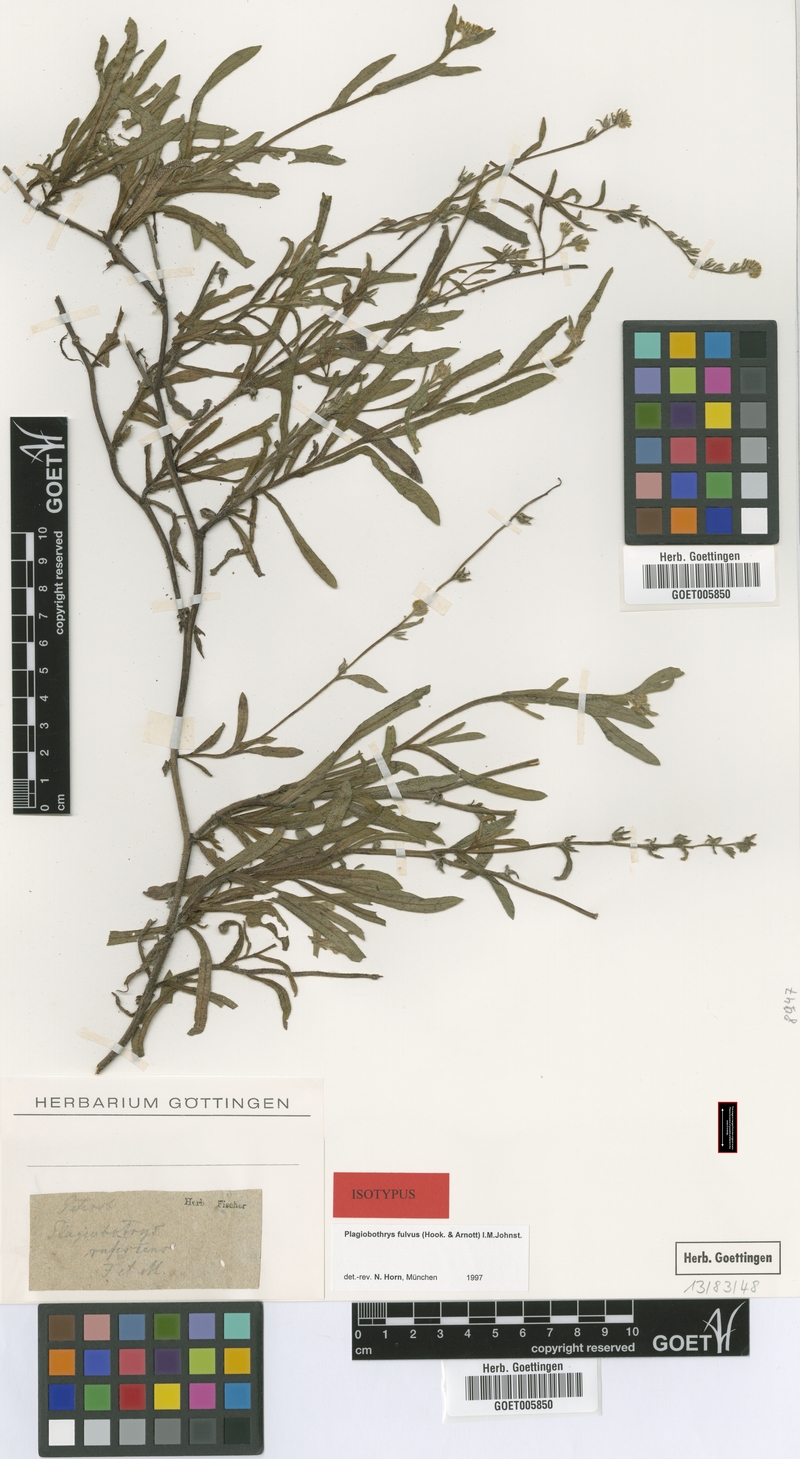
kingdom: Plantae
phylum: Tracheophyta
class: Magnoliopsida
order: Boraginales
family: Boraginaceae
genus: Plagiobothrys
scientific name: Plagiobothrys fulvus
